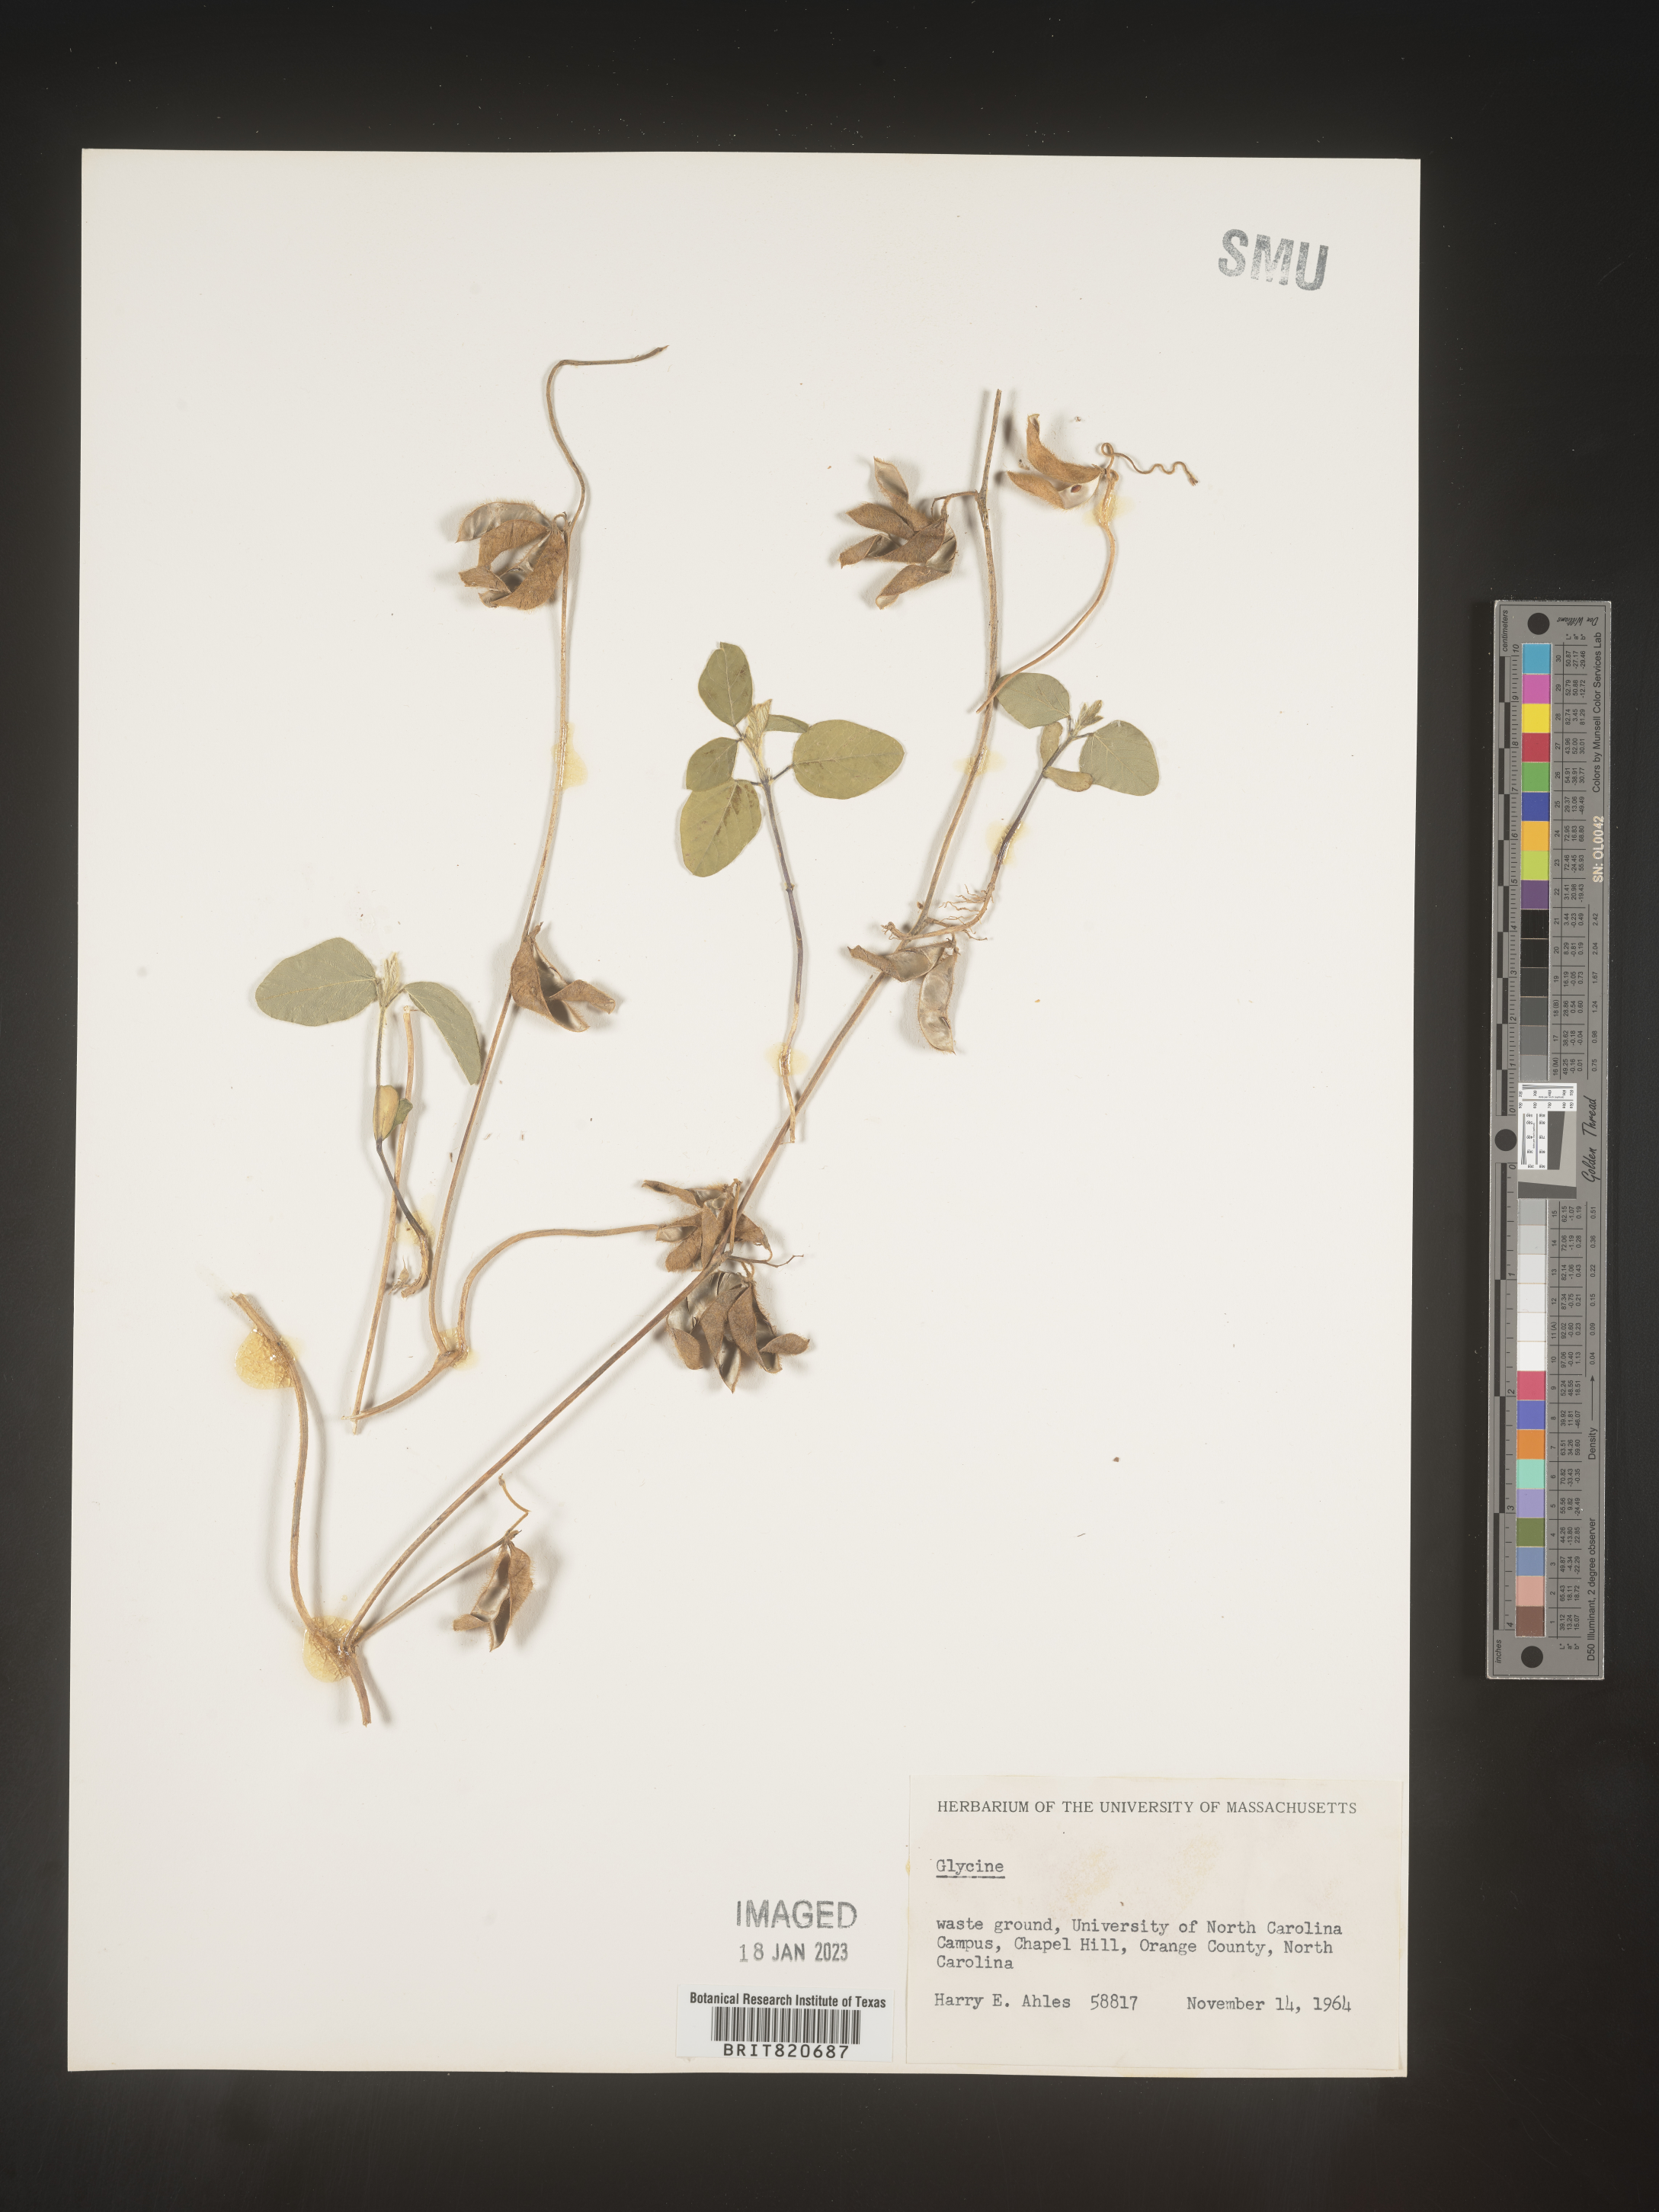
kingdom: Plantae
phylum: Tracheophyta
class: Magnoliopsida
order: Fabales
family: Fabaceae
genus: Glycine
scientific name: Glycine
